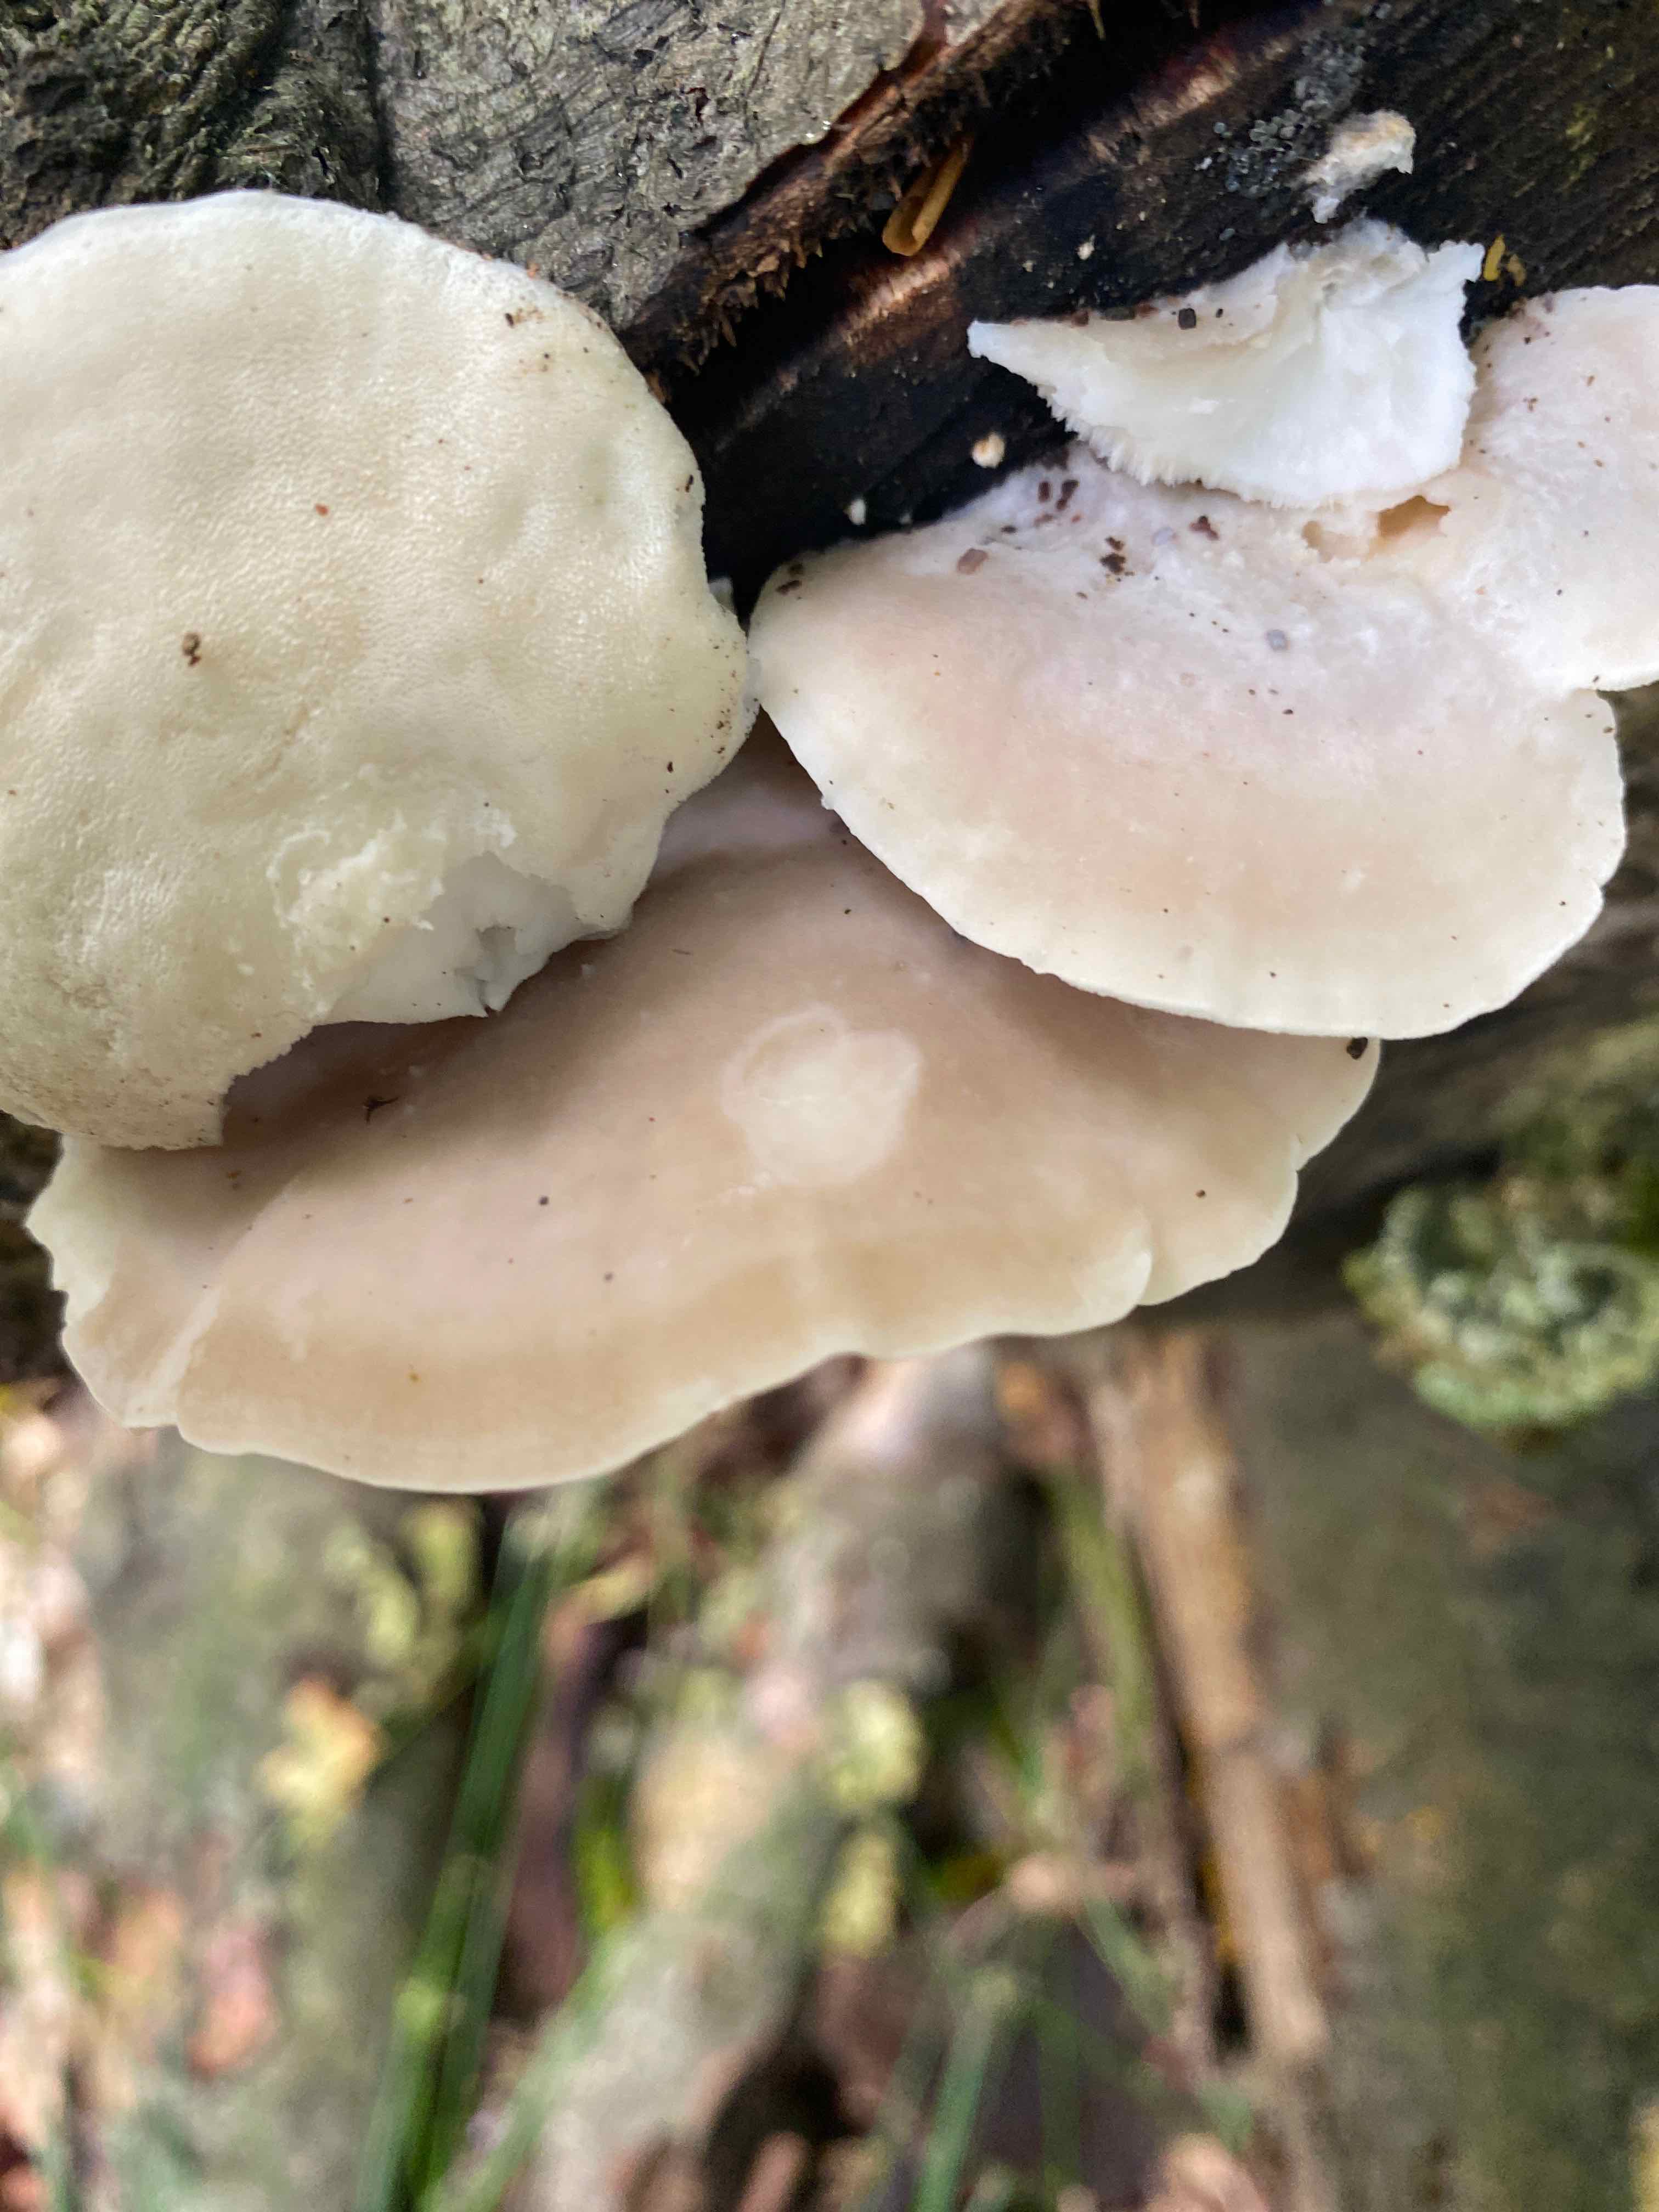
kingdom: Fungi
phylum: Basidiomycota
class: Agaricomycetes
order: Polyporales
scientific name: Polyporales
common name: poresvampordenen
